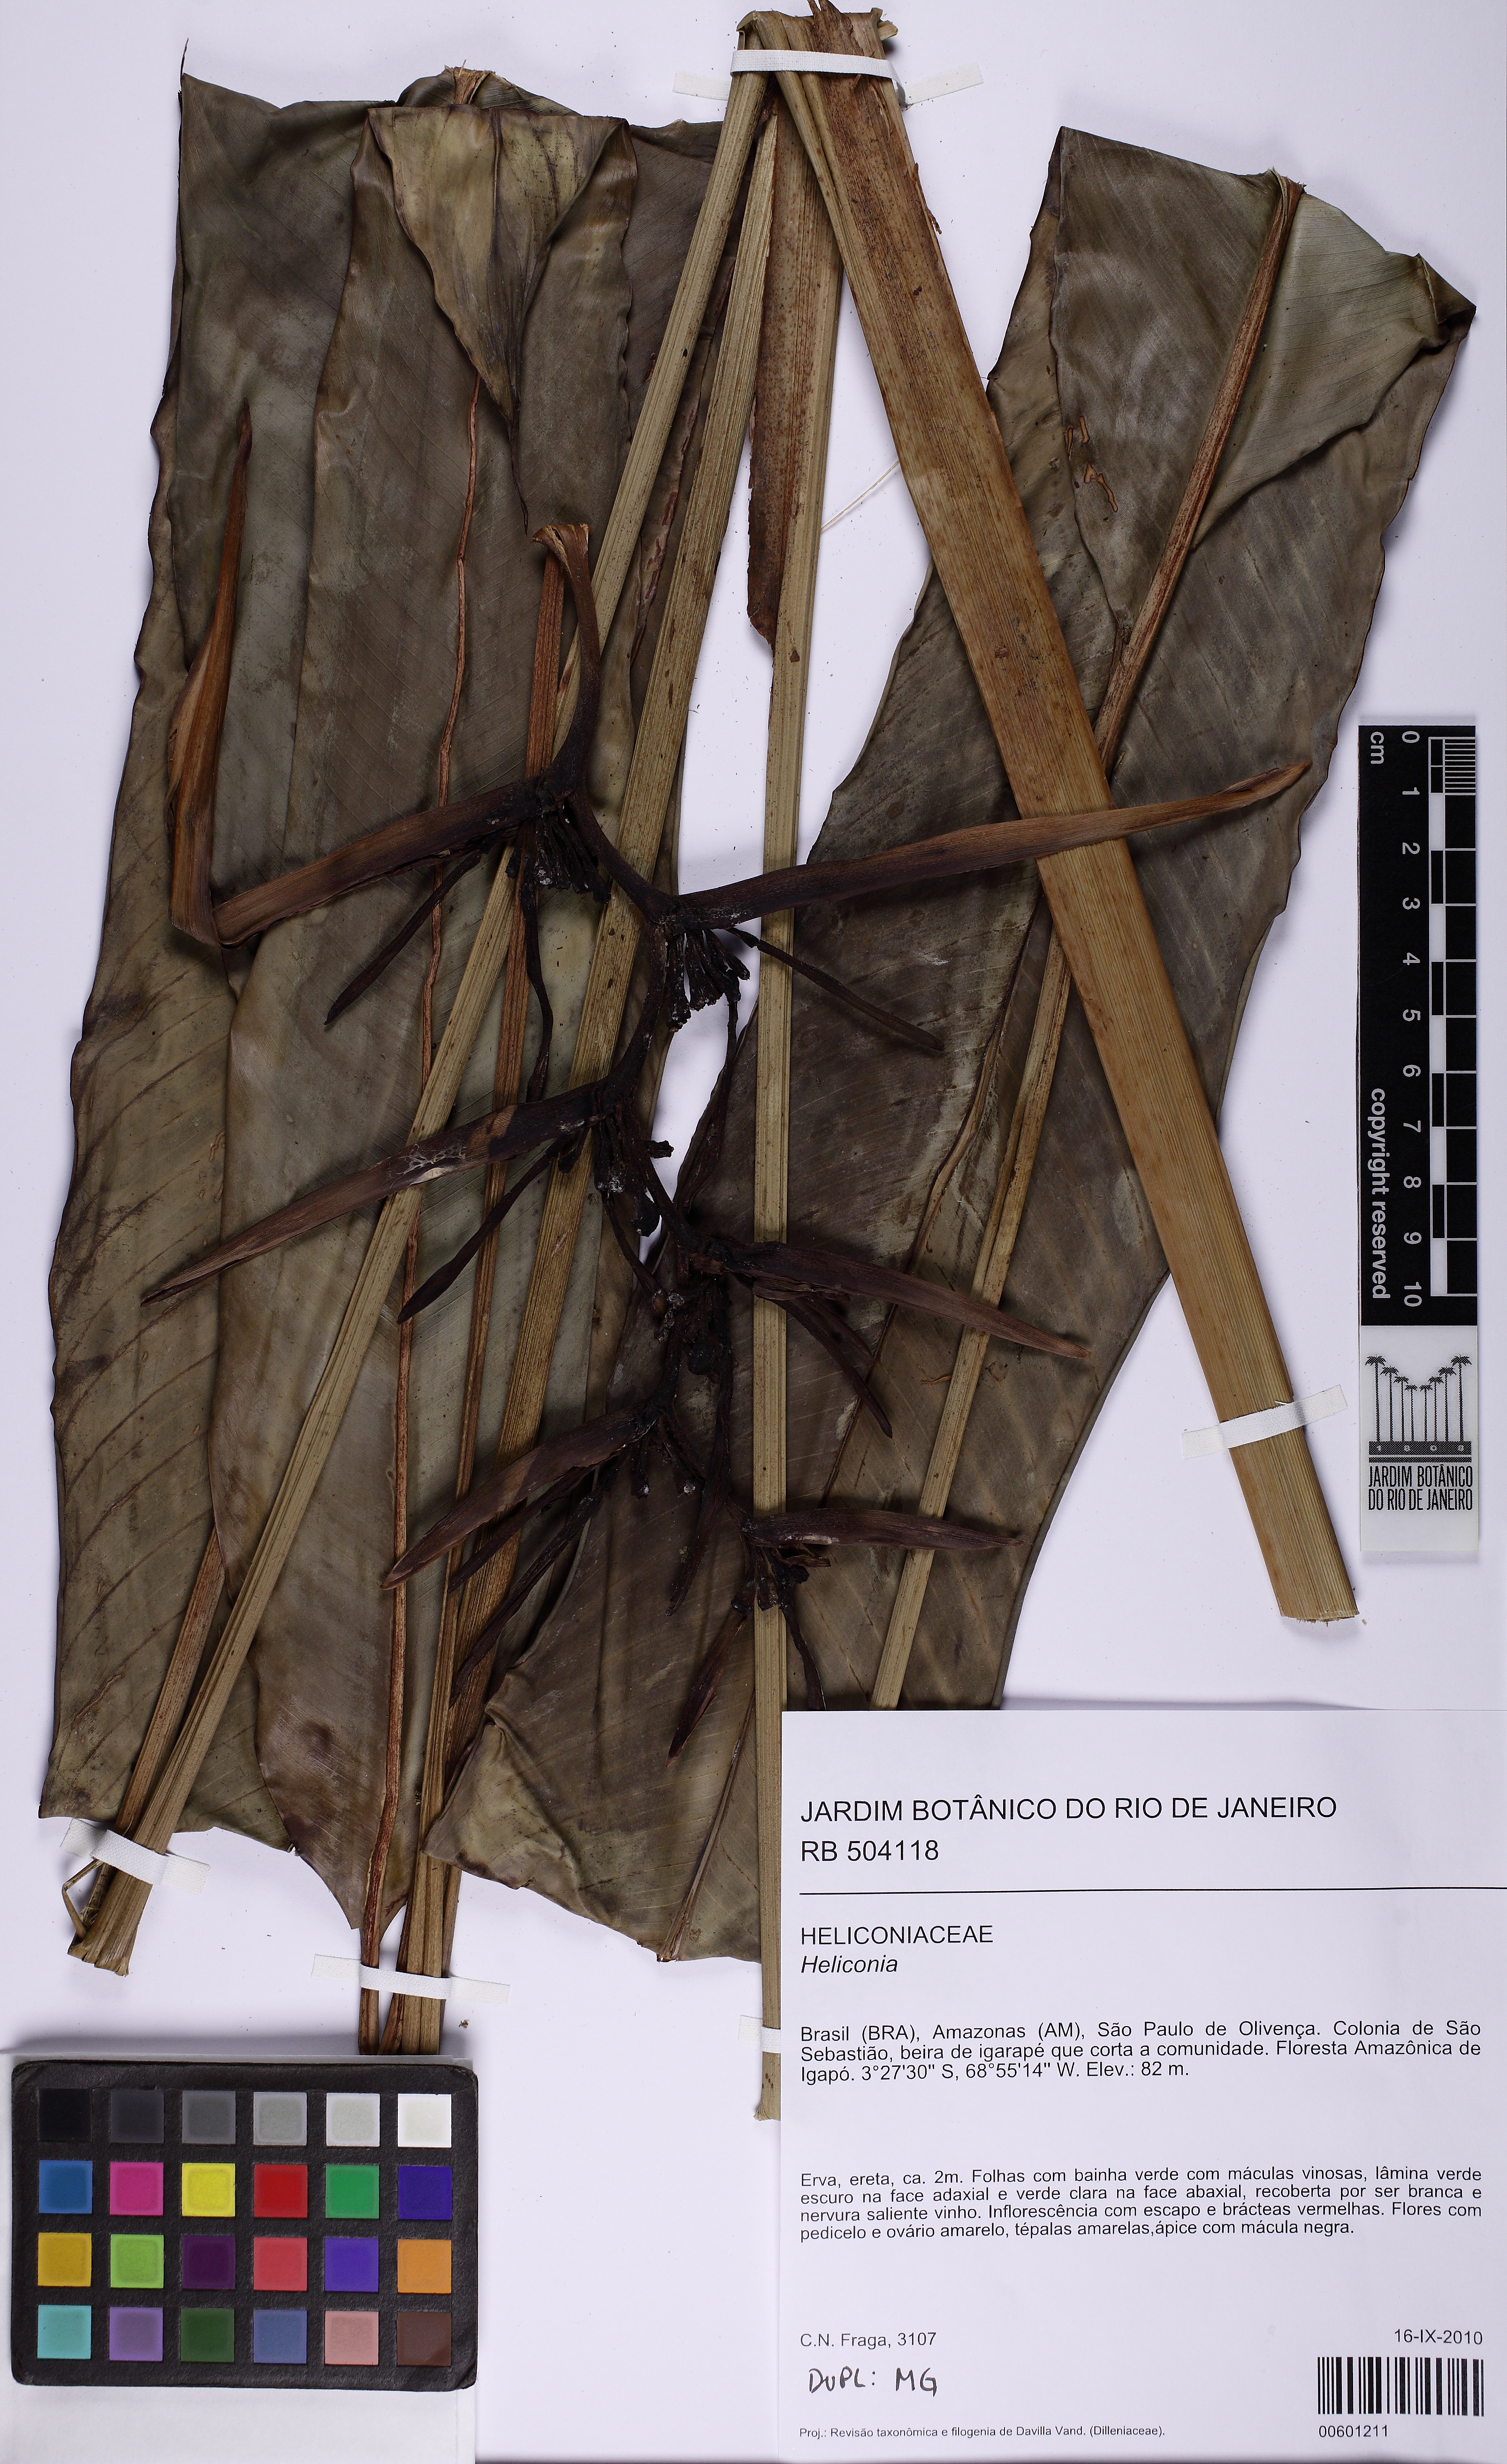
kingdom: Plantae
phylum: Tracheophyta
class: Liliopsida
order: Zingiberales
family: Heliconiaceae
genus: Heliconia
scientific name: Heliconia acuminata
